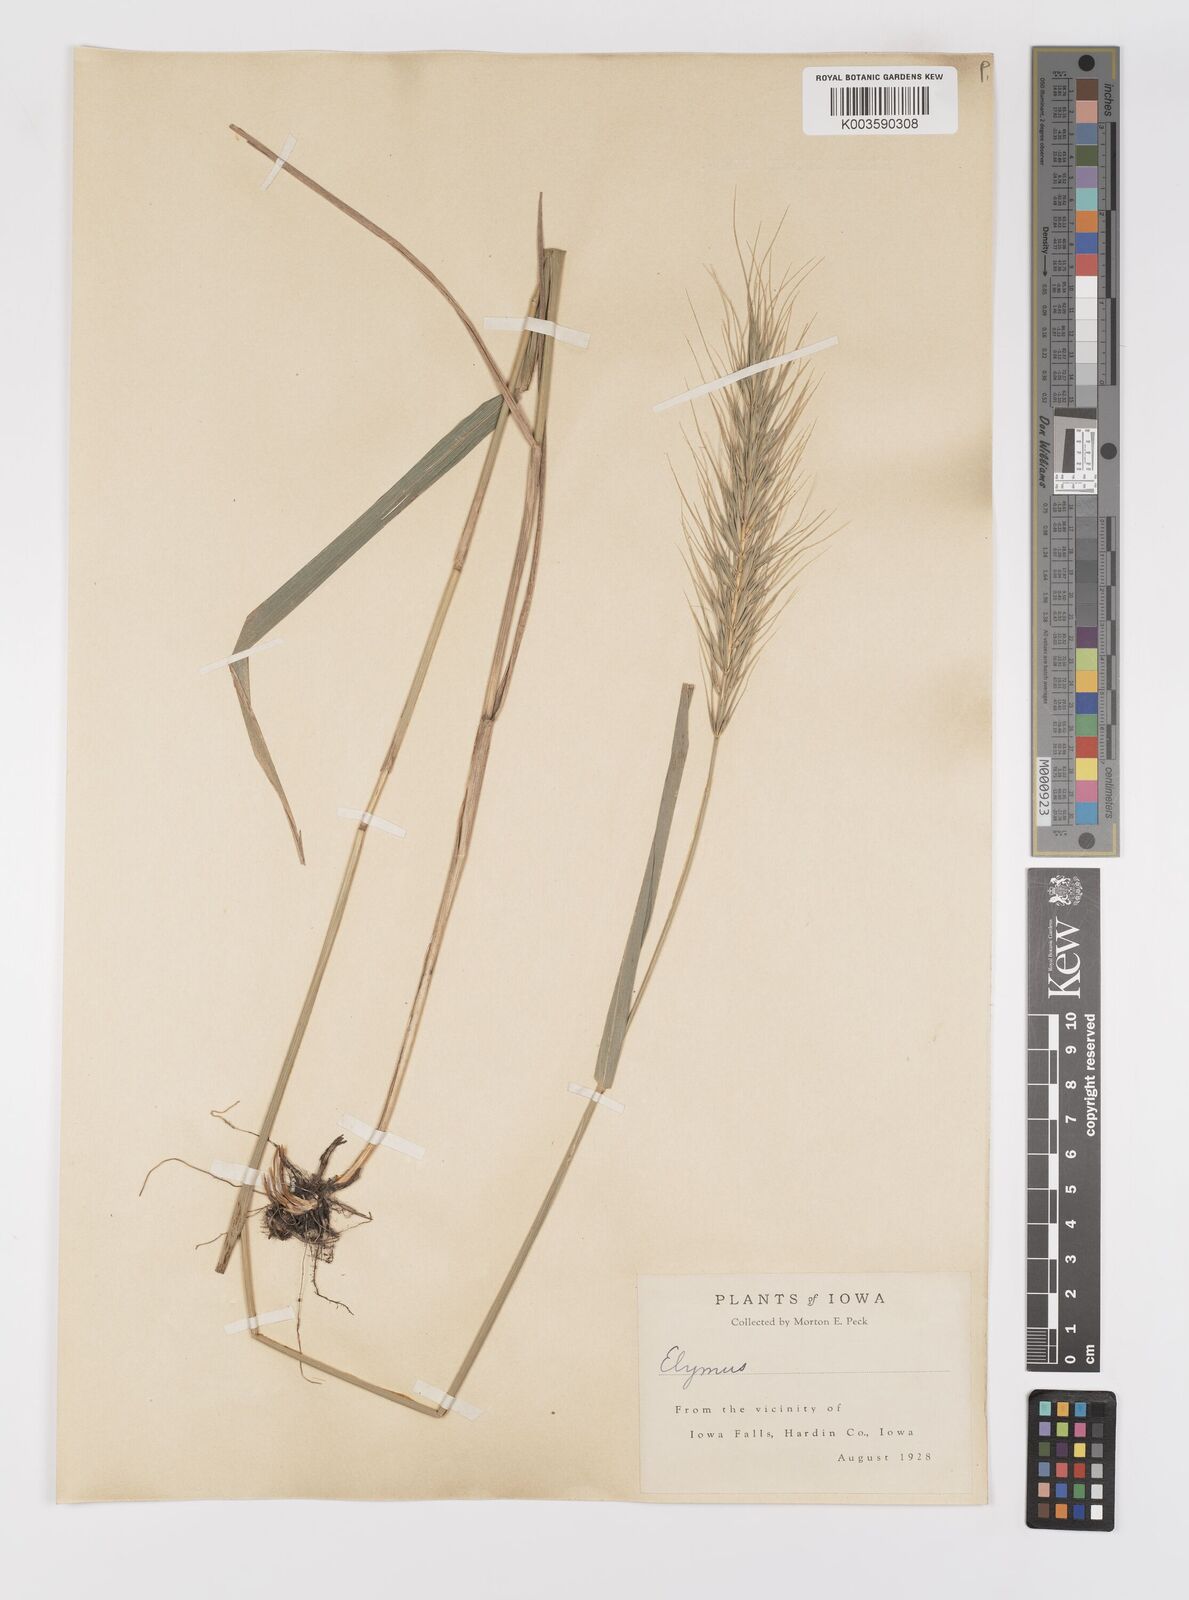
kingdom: Plantae
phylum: Tracheophyta
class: Liliopsida
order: Poales
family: Poaceae
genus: Elymus
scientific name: Elymus
